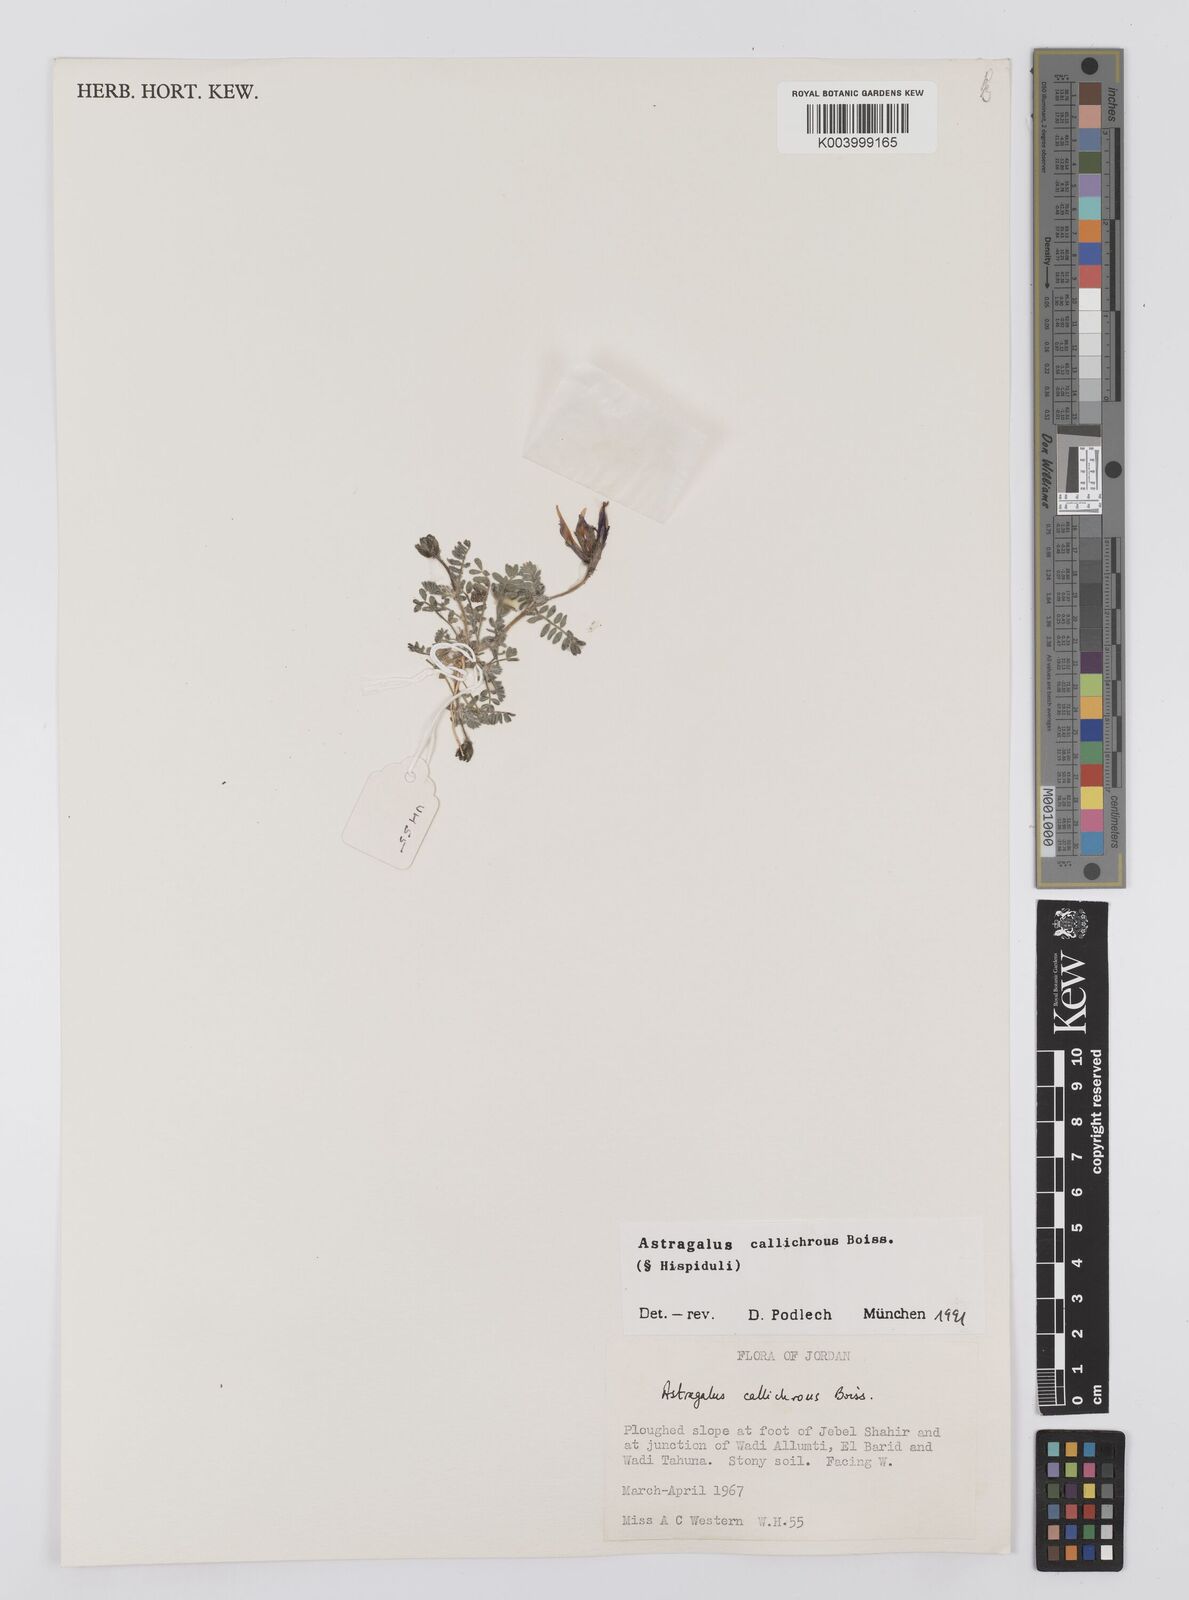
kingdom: Plantae
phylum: Tracheophyta
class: Magnoliopsida
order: Fabales
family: Fabaceae
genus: Astragalus
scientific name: Astragalus callichrous
